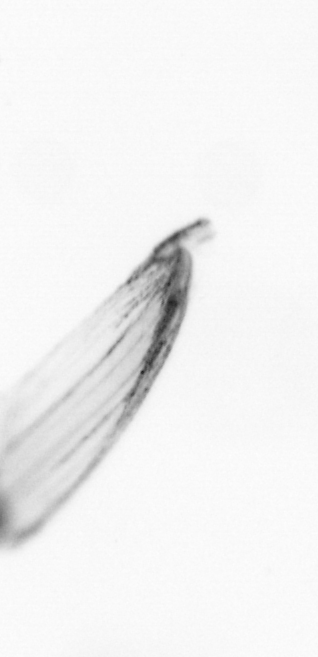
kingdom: Chromista
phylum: Ochrophyta
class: Bacillariophyceae
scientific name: Bacillariophyceae
